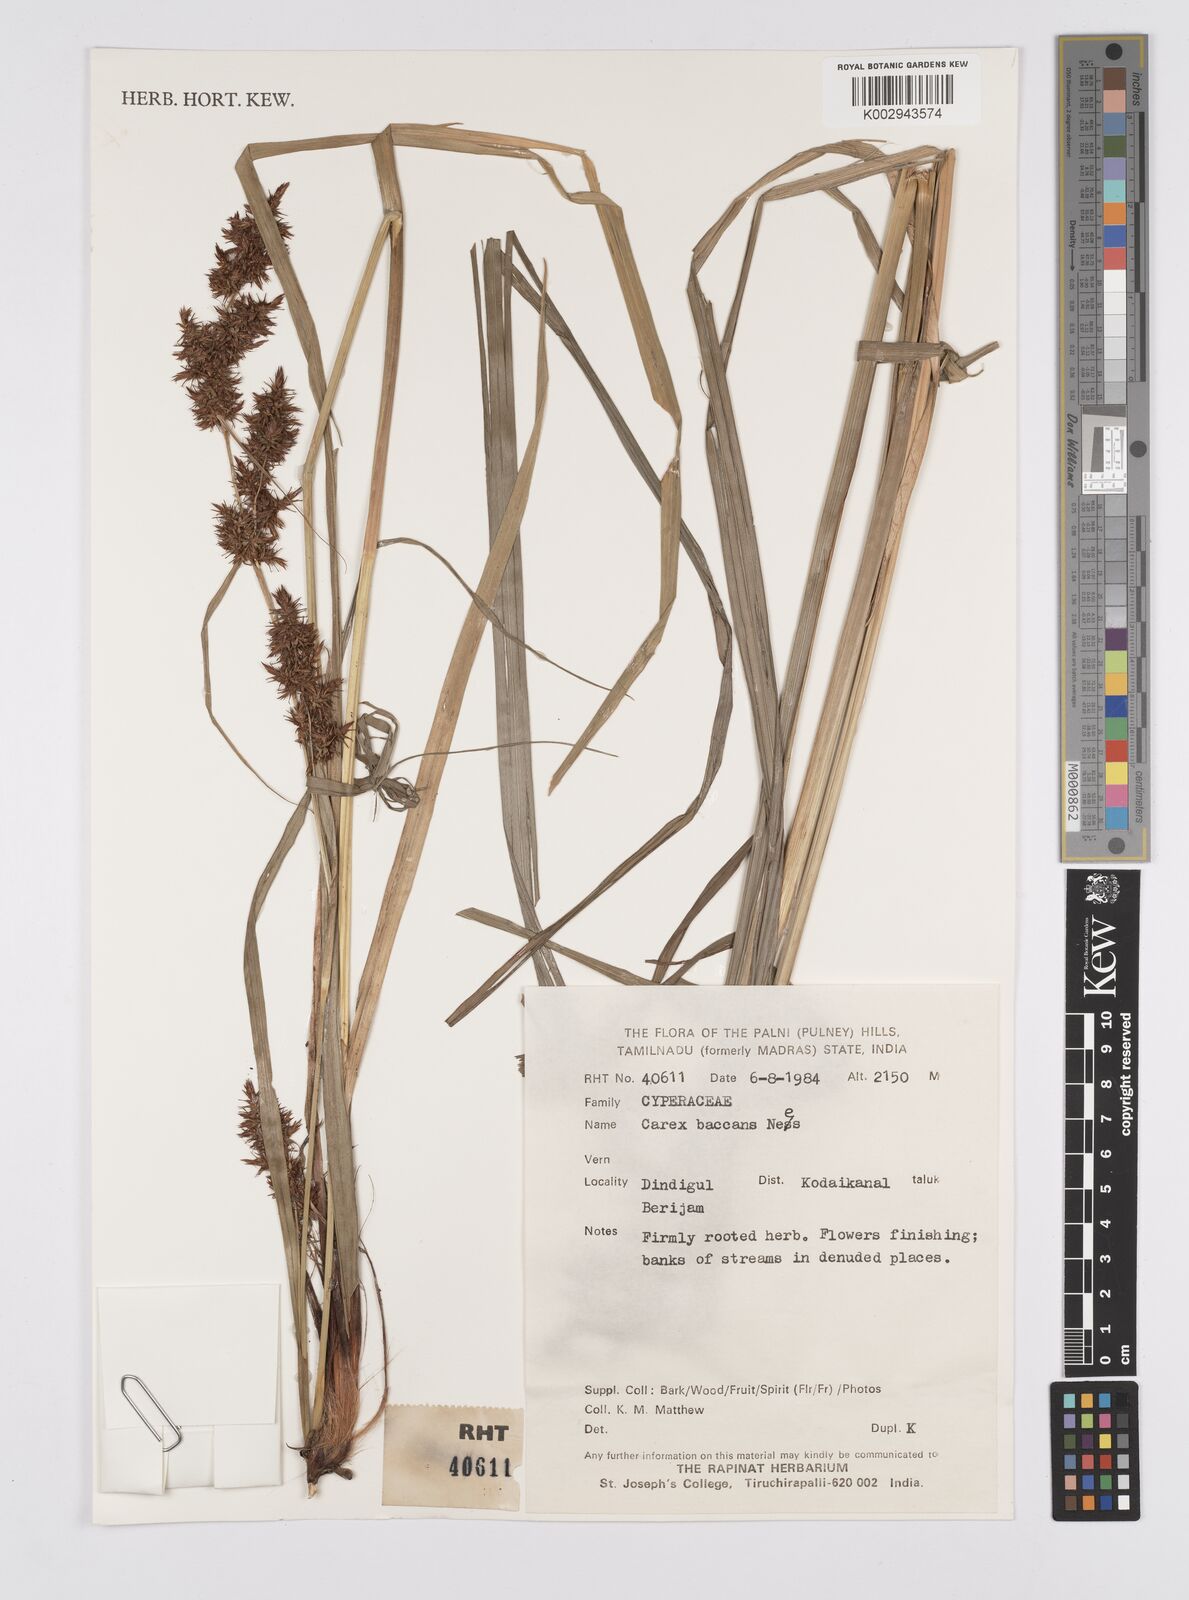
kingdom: Plantae
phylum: Tracheophyta
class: Liliopsida
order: Poales
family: Cyperaceae
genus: Carex
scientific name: Carex baccans
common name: Crimson seeded sedge
